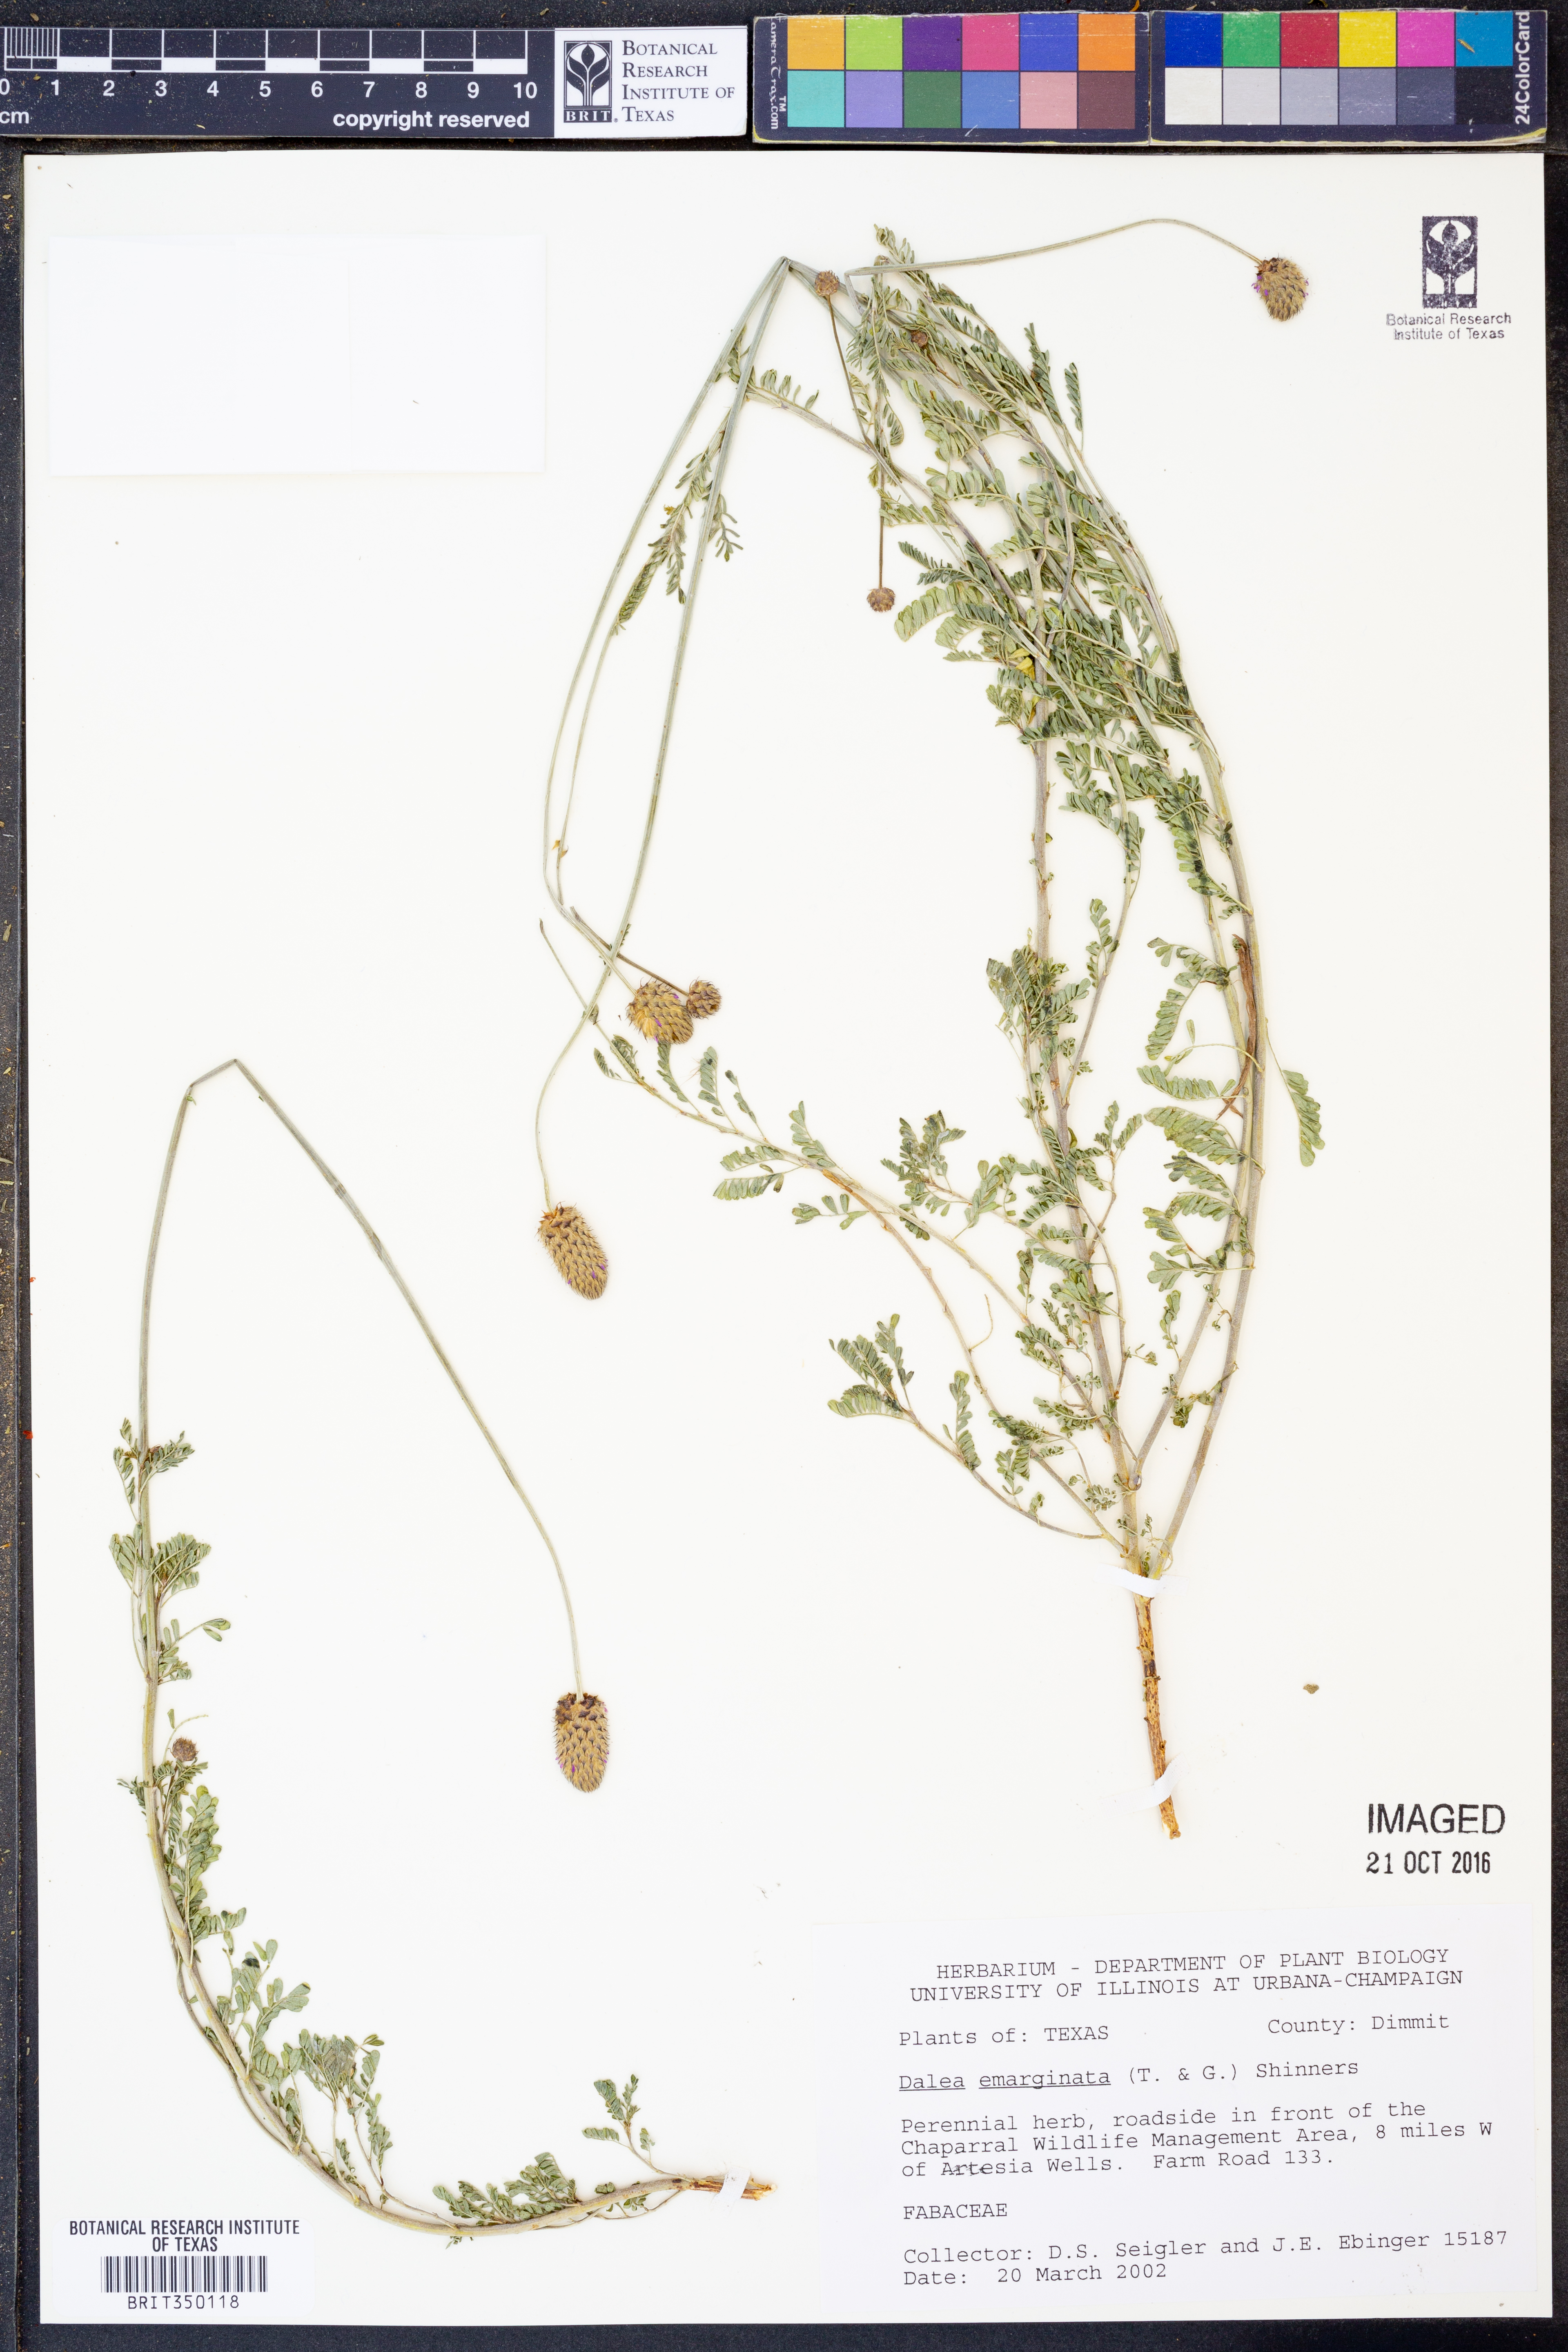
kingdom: Plantae
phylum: Tracheophyta
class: Magnoliopsida
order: Fabales
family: Fabaceae
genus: Dalea
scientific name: Dalea emarginata
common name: Wedgeleaf prairie clover
